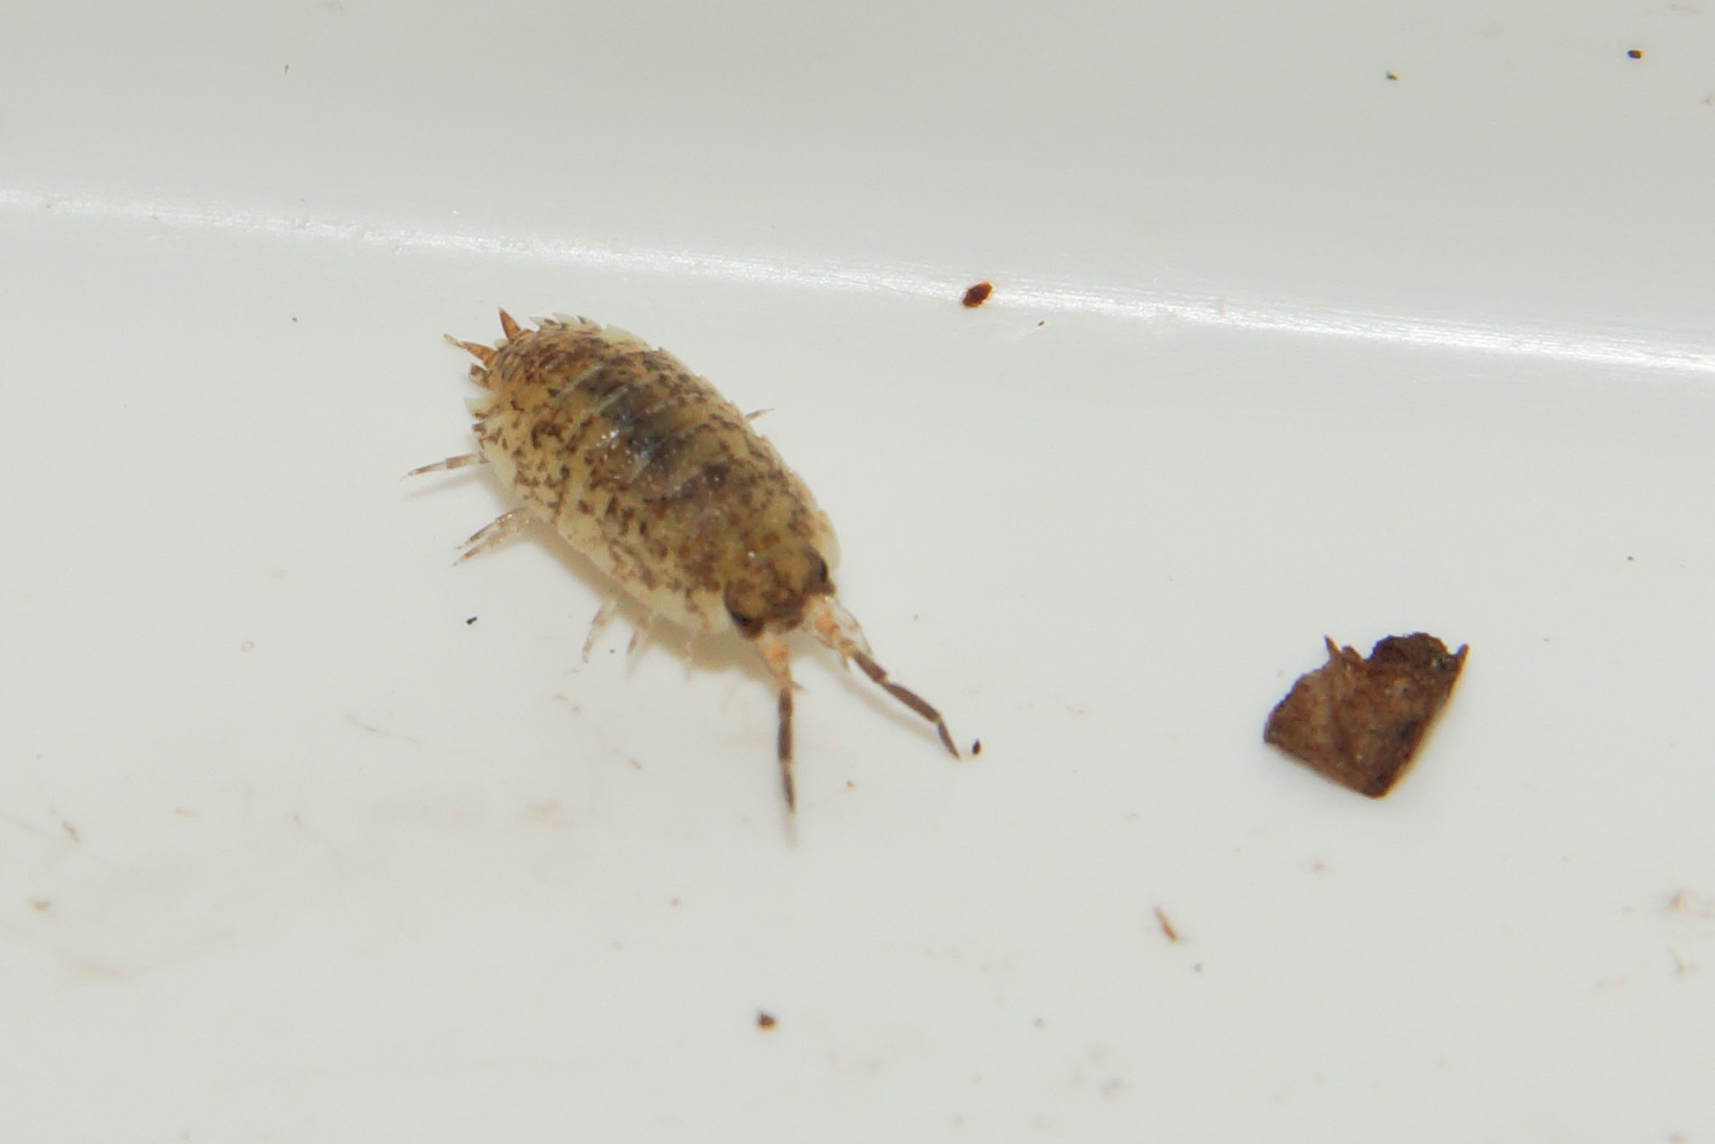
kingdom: Animalia
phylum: Arthropoda
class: Malacostraca
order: Isopoda
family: Porcellionidae
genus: Porcellio
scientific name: Porcellio scaber
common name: Grå bænkebider
